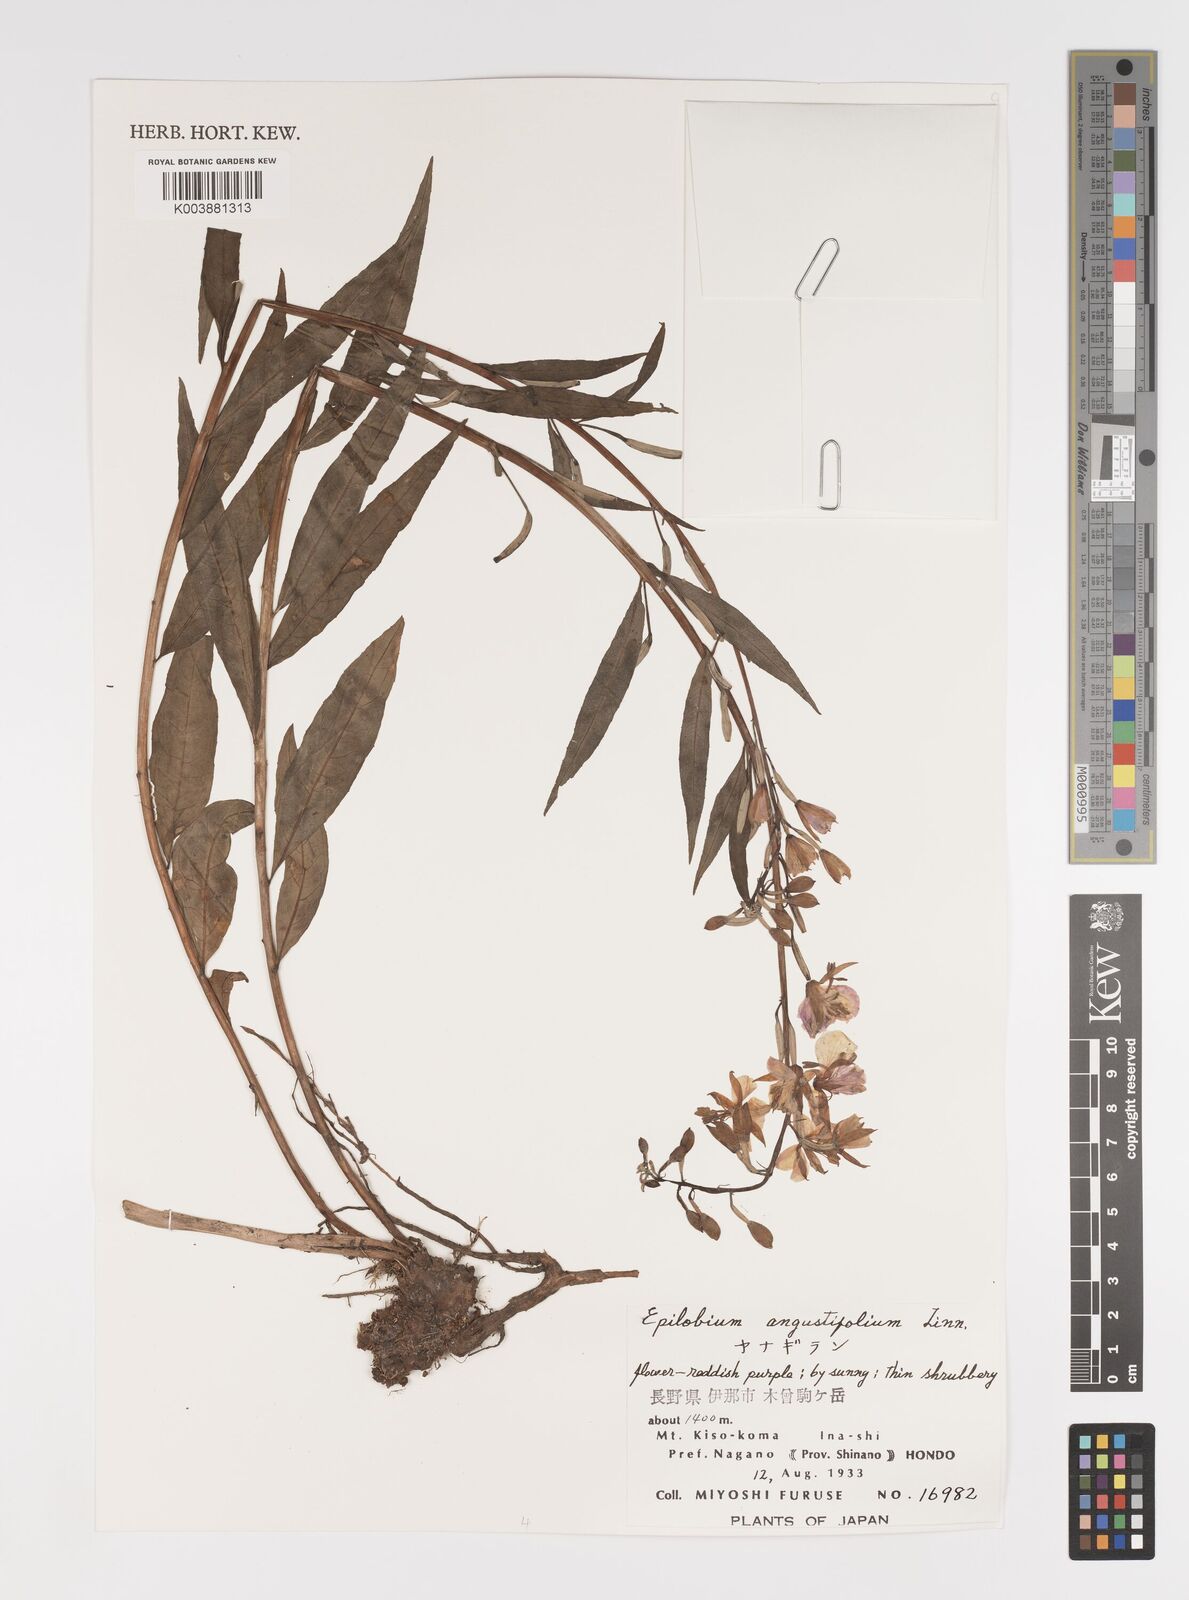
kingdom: Plantae
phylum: Tracheophyta
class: Magnoliopsida
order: Myrtales
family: Onagraceae
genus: Chamaenerion
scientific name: Chamaenerion angustifolium
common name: Fireweed
